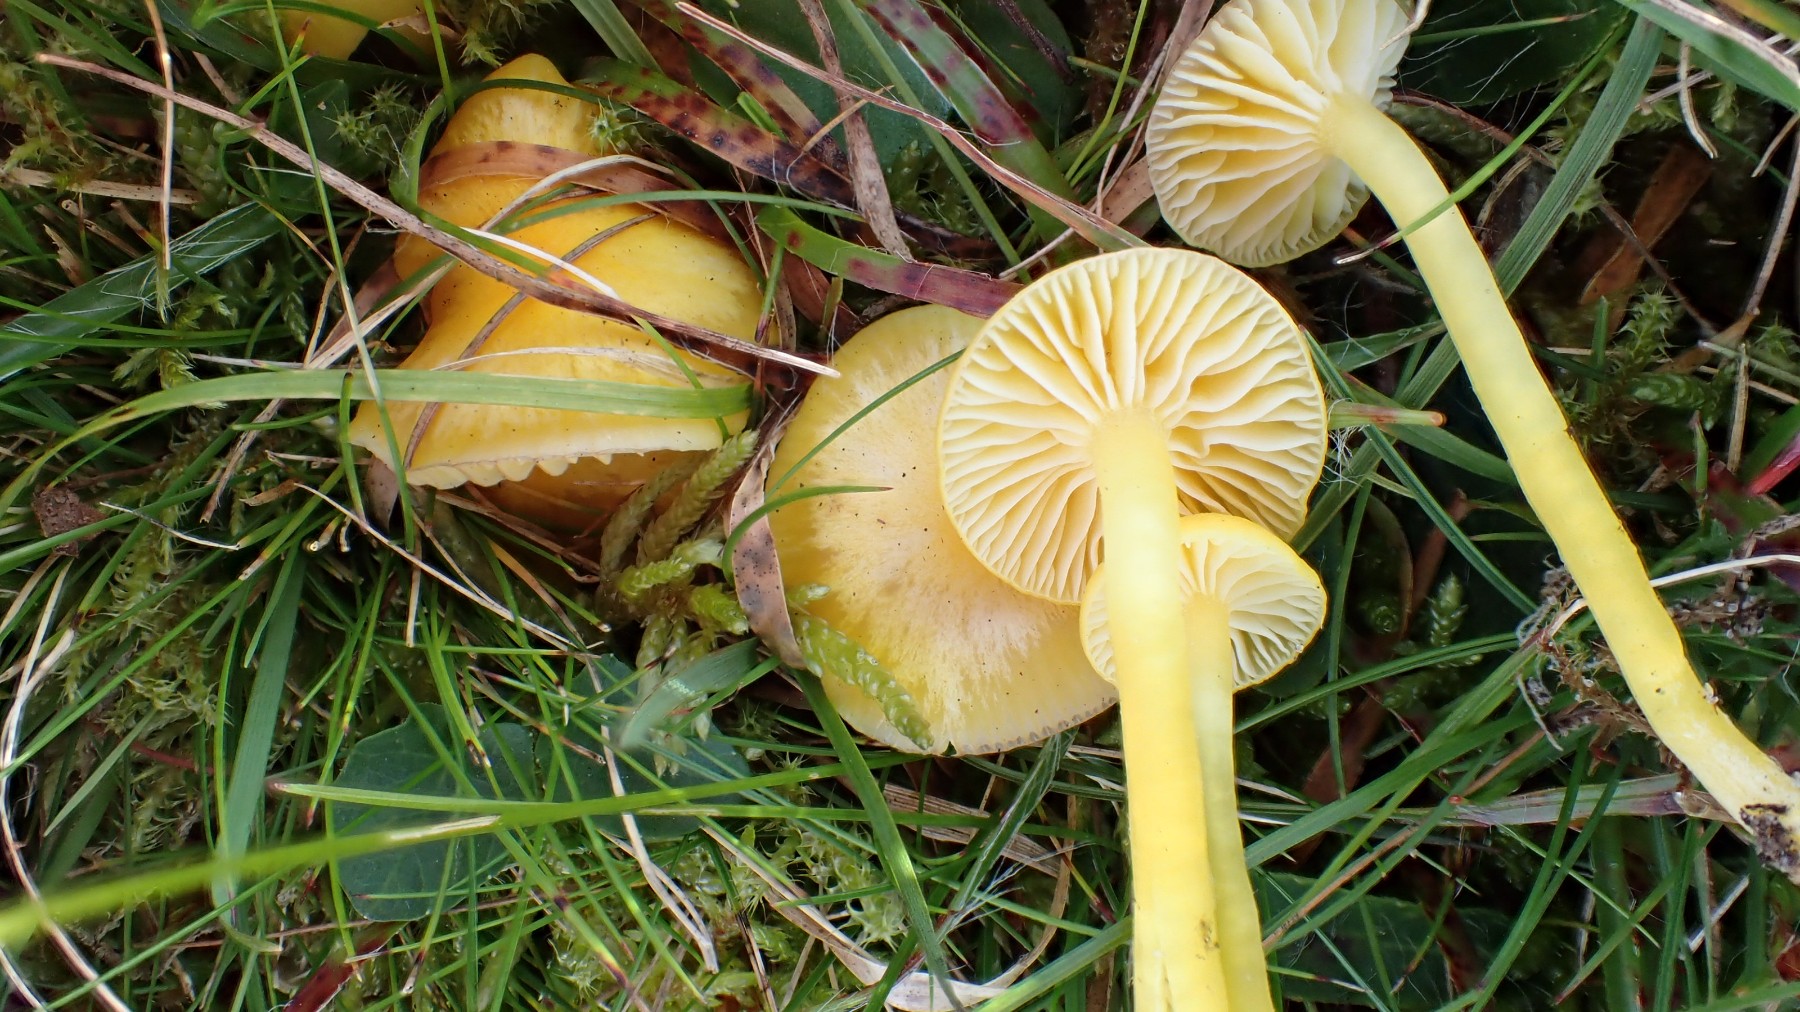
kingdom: Fungi
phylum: Basidiomycota
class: Agaricomycetes
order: Agaricales
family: Hygrophoraceae
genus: Hygrocybe
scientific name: Hygrocybe ceracea
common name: voksgul vokshat
